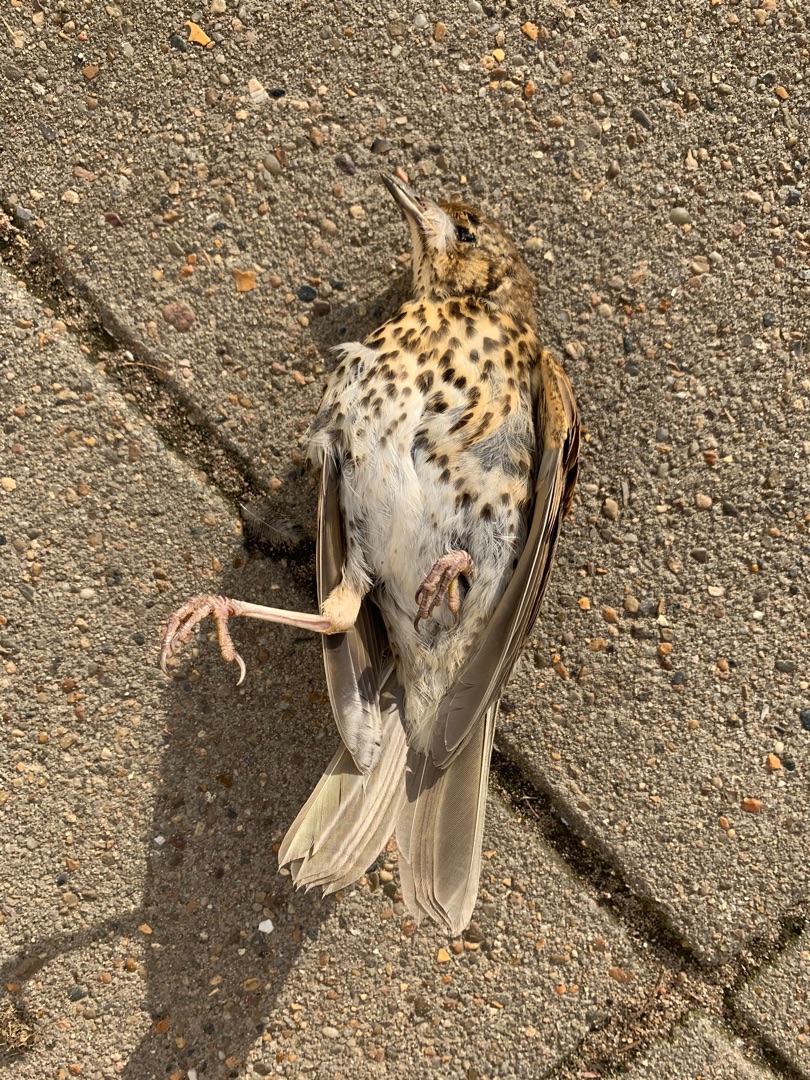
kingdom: Animalia
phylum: Chordata
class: Aves
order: Passeriformes
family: Turdidae
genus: Turdus
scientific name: Turdus philomelos
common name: Sangdrossel
